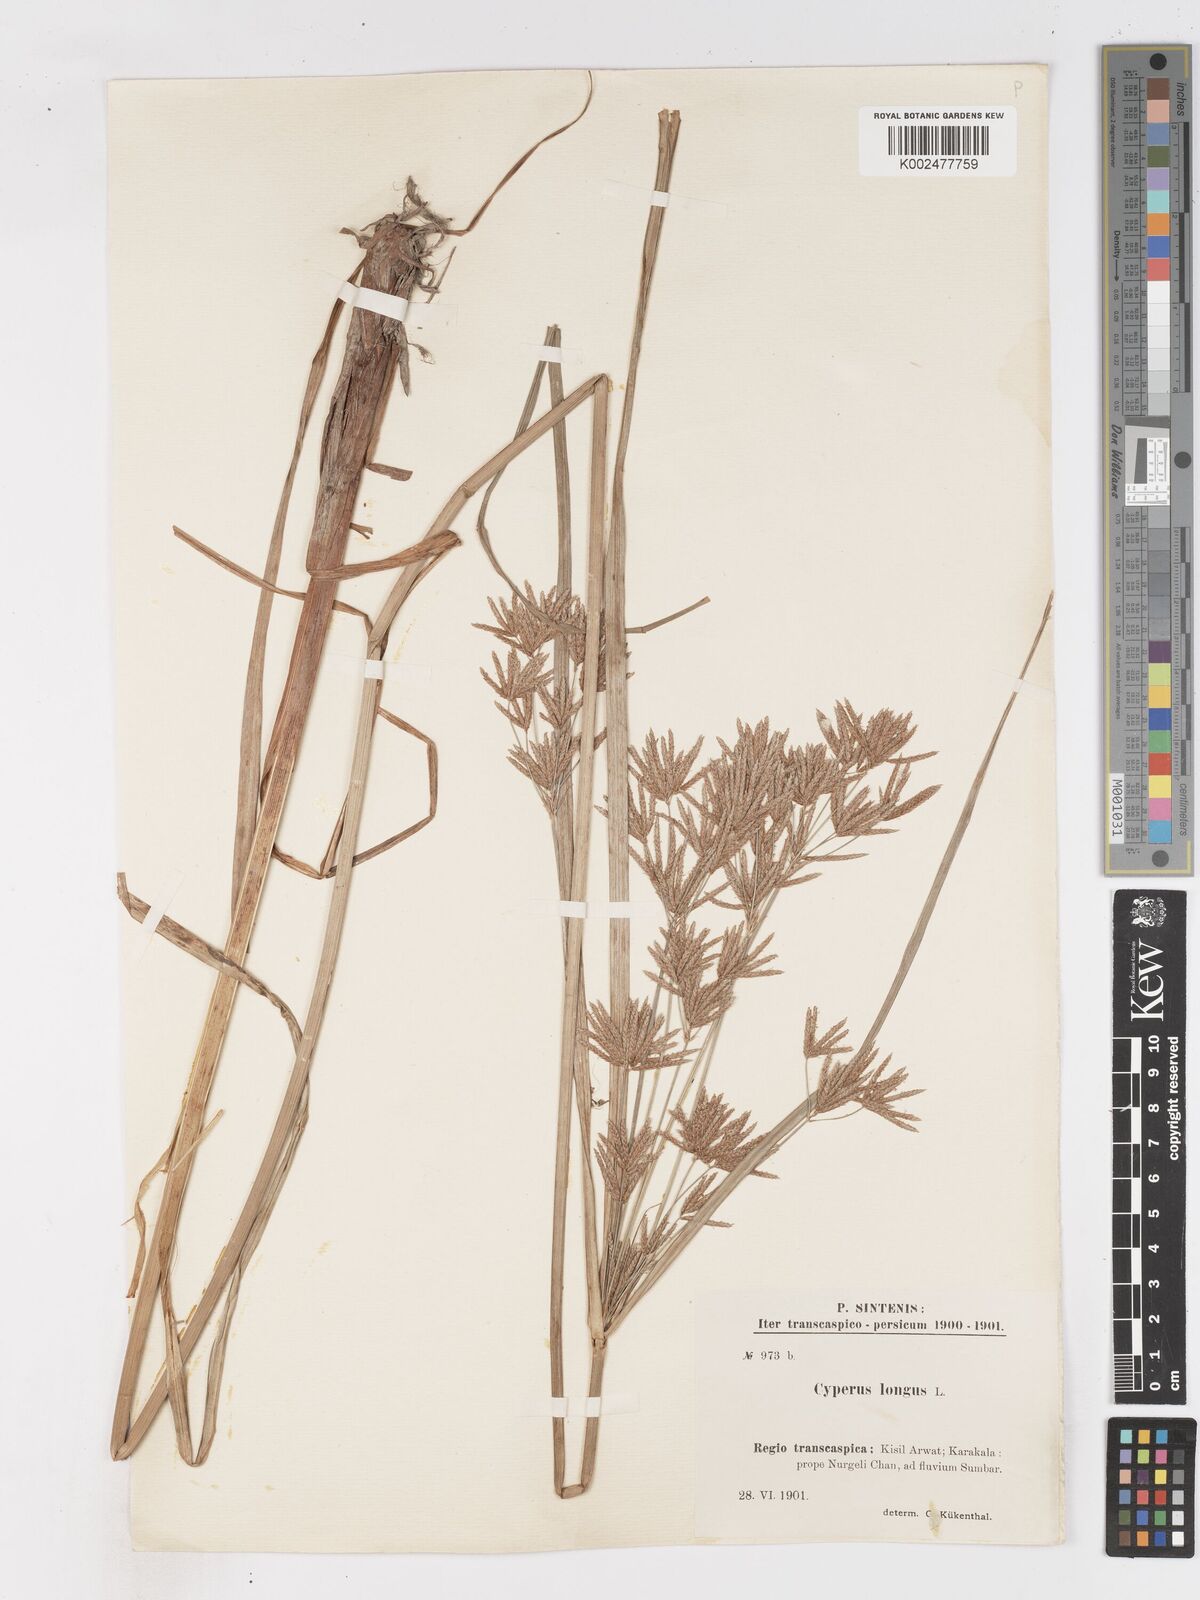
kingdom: Plantae
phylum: Tracheophyta
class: Liliopsida
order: Poales
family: Cyperaceae
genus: Cyperus
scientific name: Cyperus longus
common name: Galingale
